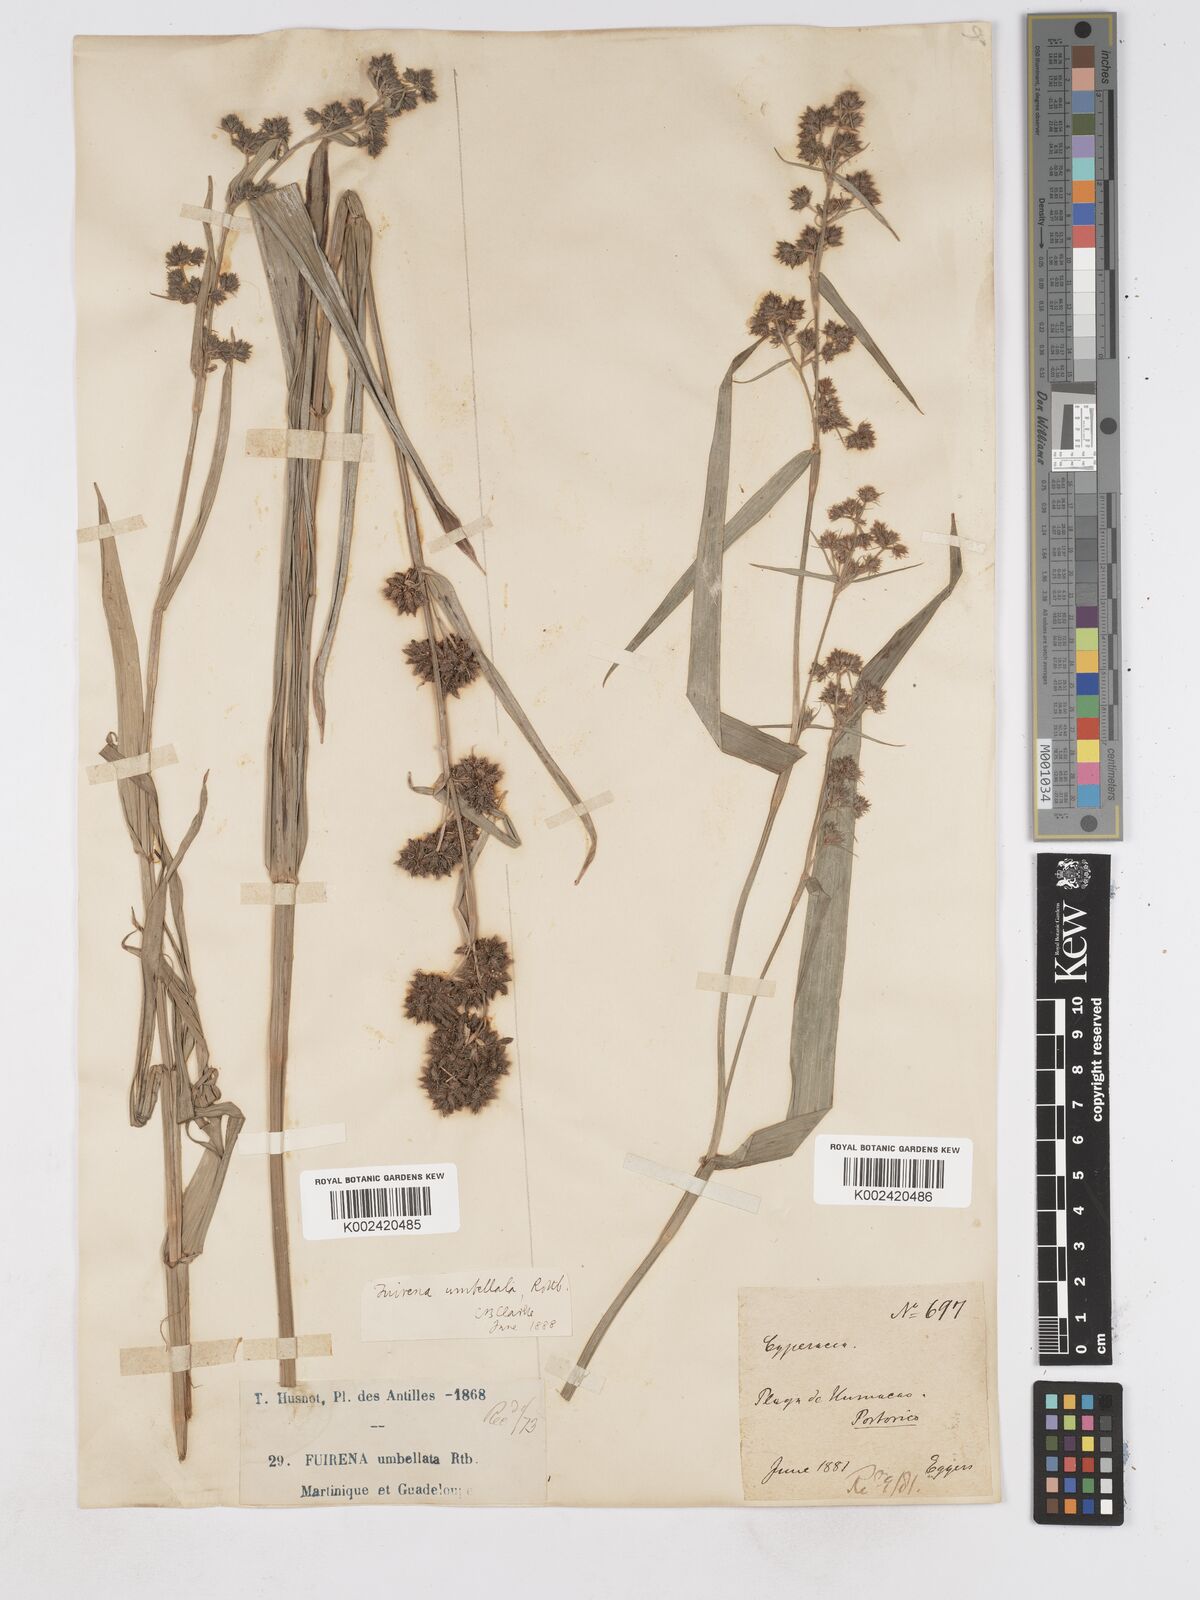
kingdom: Plantae
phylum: Tracheophyta
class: Liliopsida
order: Poales
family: Cyperaceae
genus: Fuirena
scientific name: Fuirena umbellata
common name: Yefen
